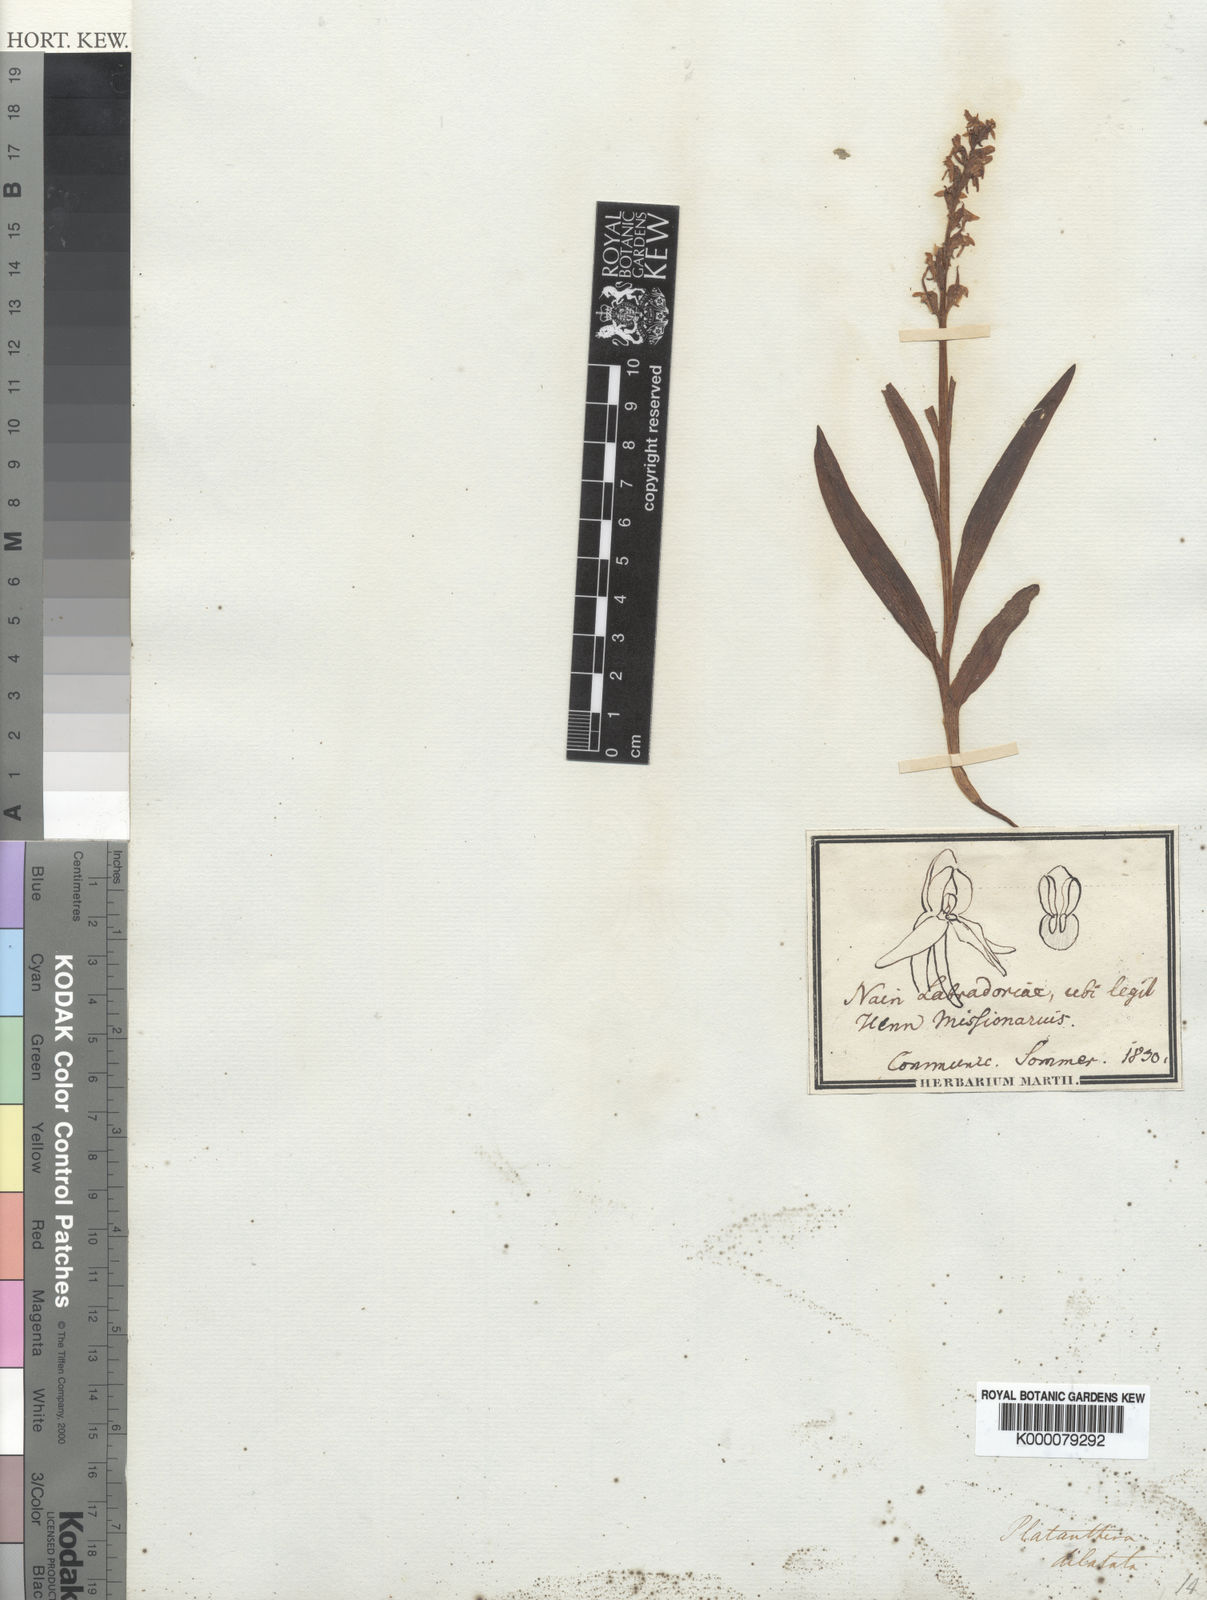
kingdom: Plantae
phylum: Tracheophyta
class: Liliopsida
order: Asparagales
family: Orchidaceae
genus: Platanthera
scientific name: Platanthera dilatata
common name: Bog candles
